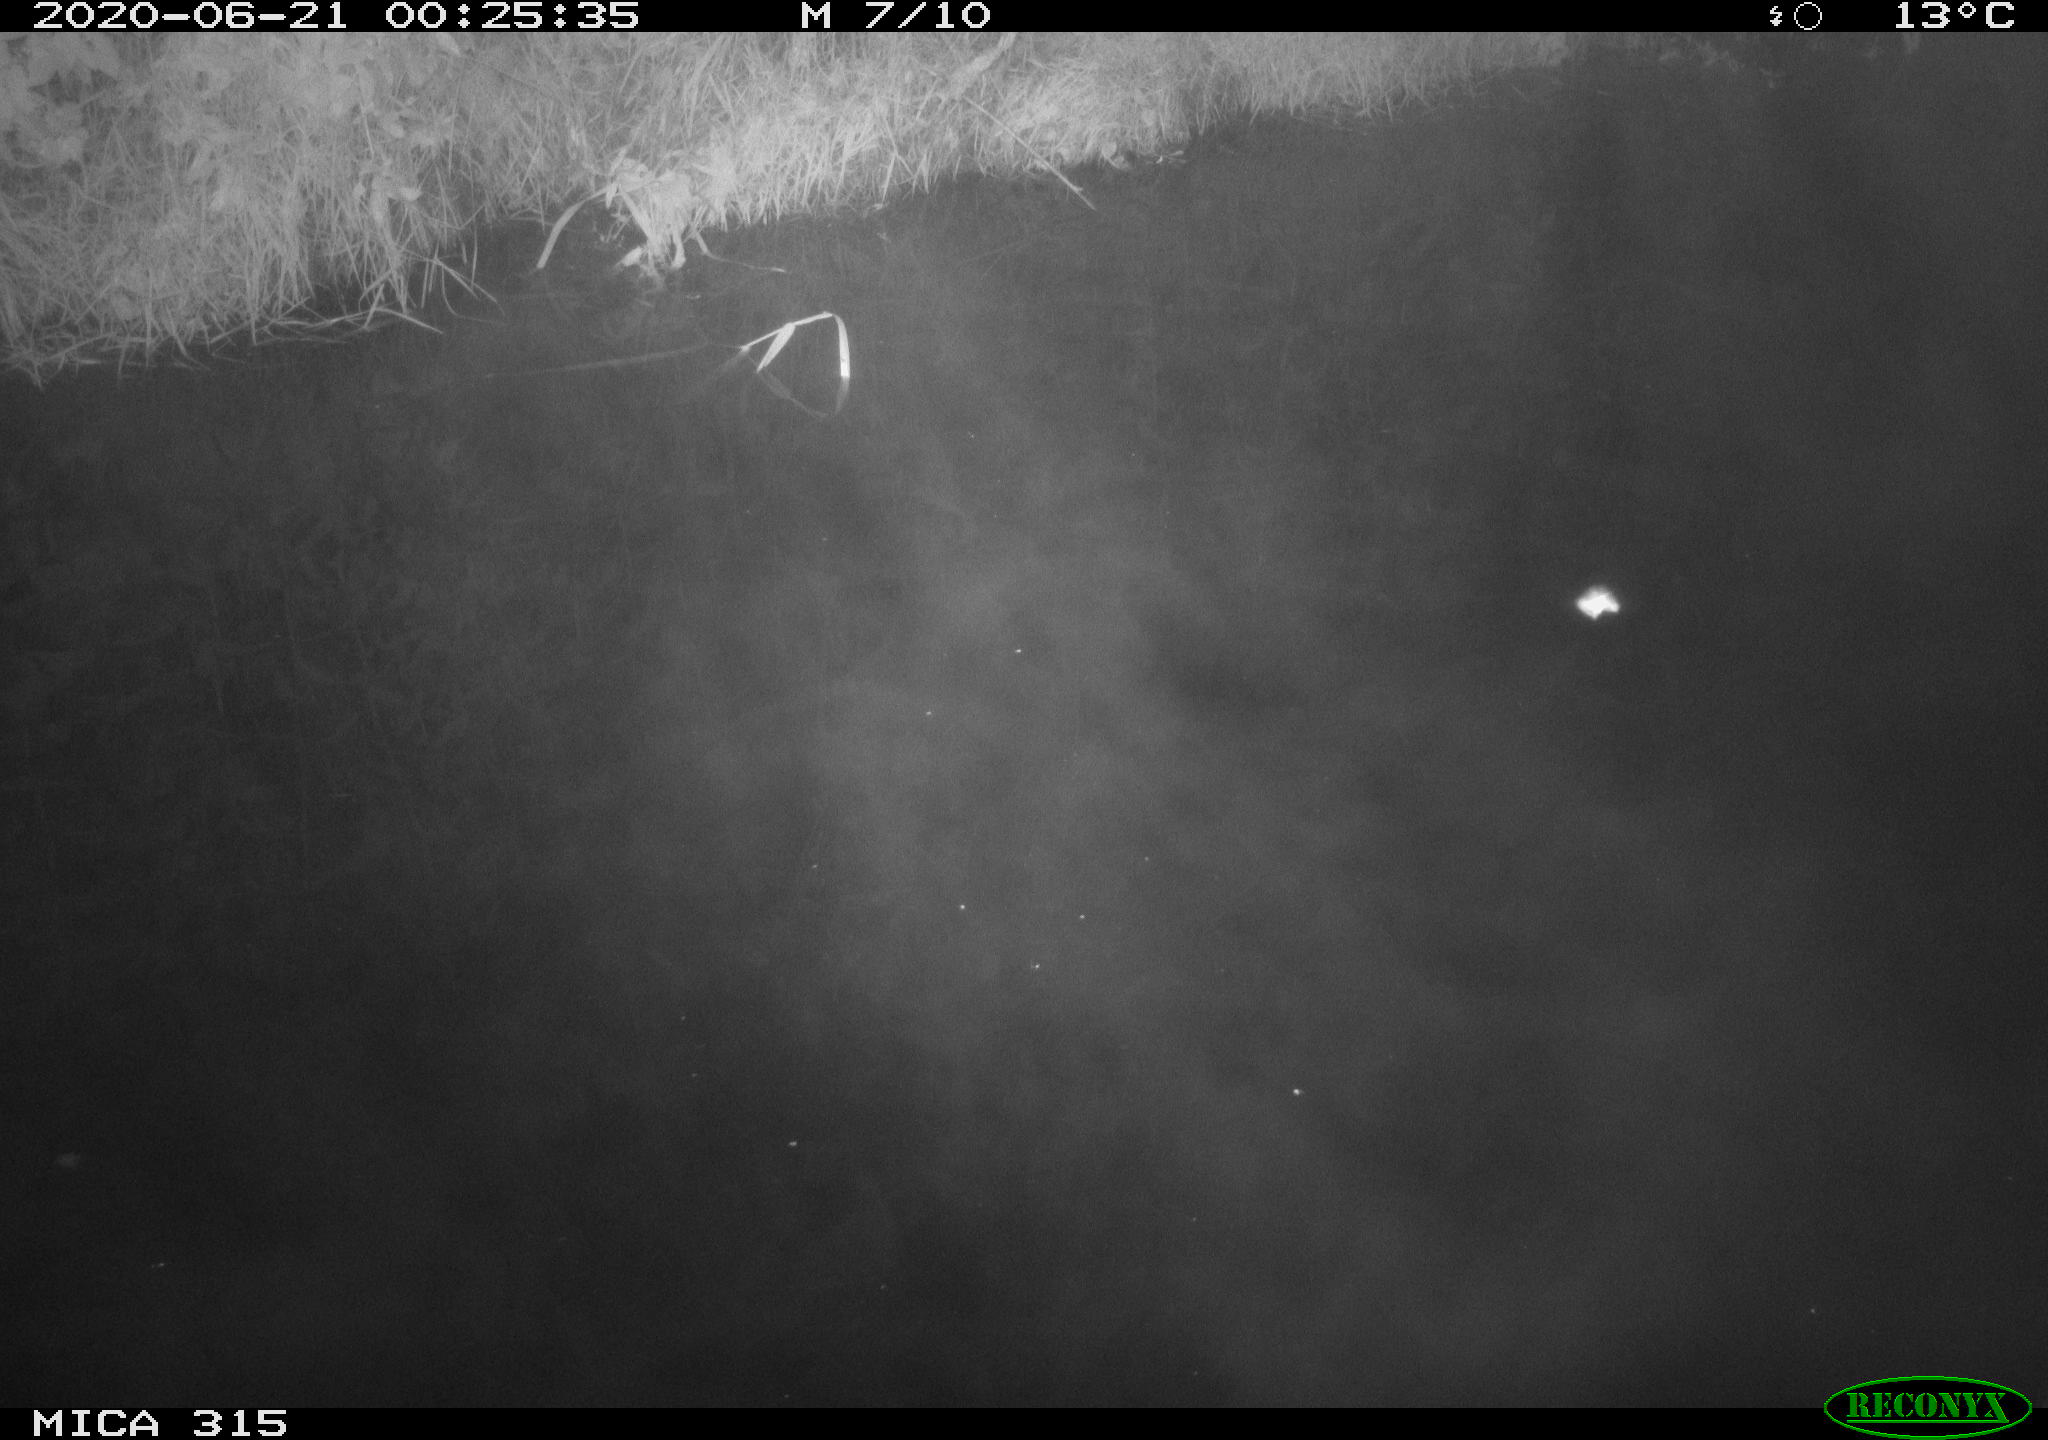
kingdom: Animalia
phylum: Chordata
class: Aves
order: Anseriformes
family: Anatidae
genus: Anas
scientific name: Anas platyrhynchos
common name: Mallard
